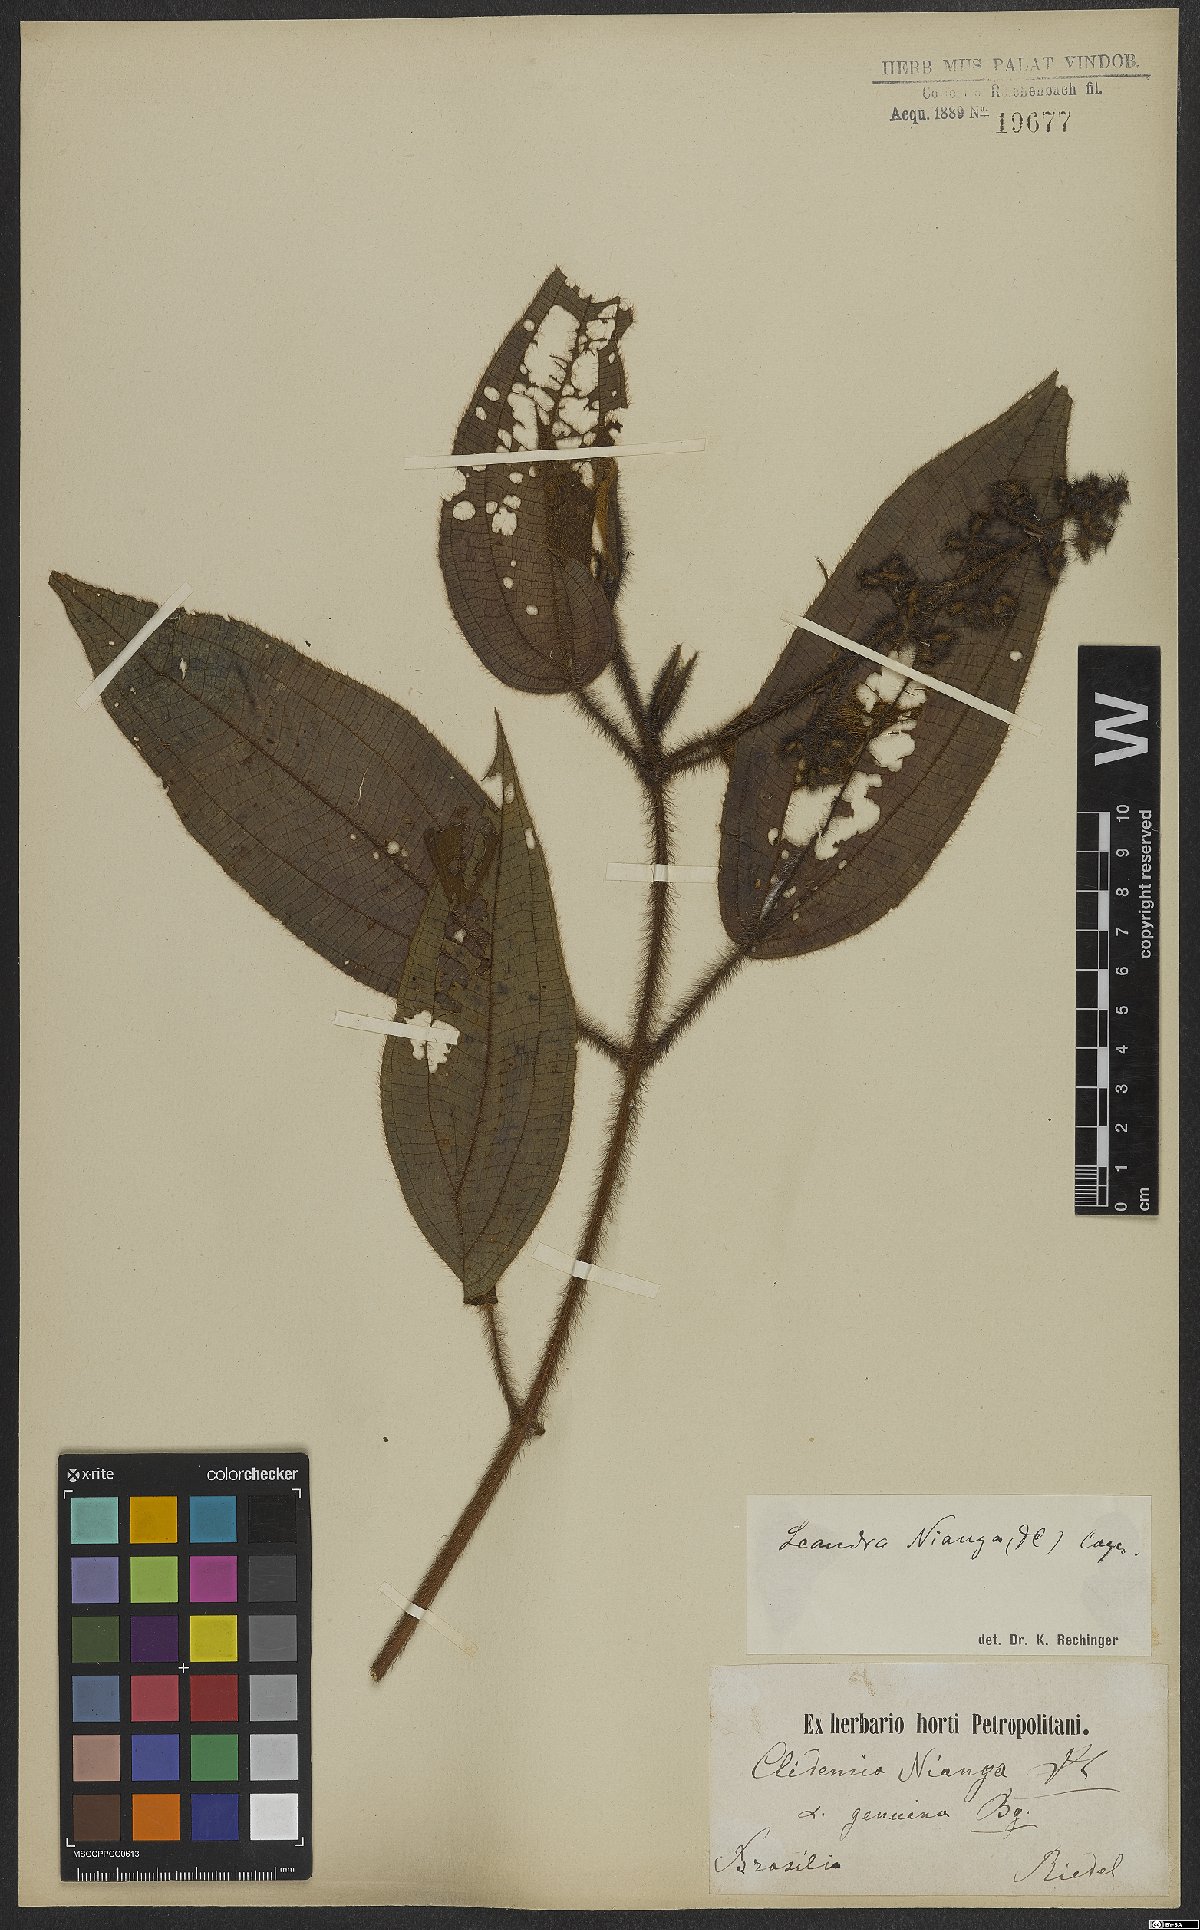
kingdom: Plantae
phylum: Tracheophyta
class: Magnoliopsida
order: Myrtales
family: Melastomataceae
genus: Miconia
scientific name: Miconia nianga
